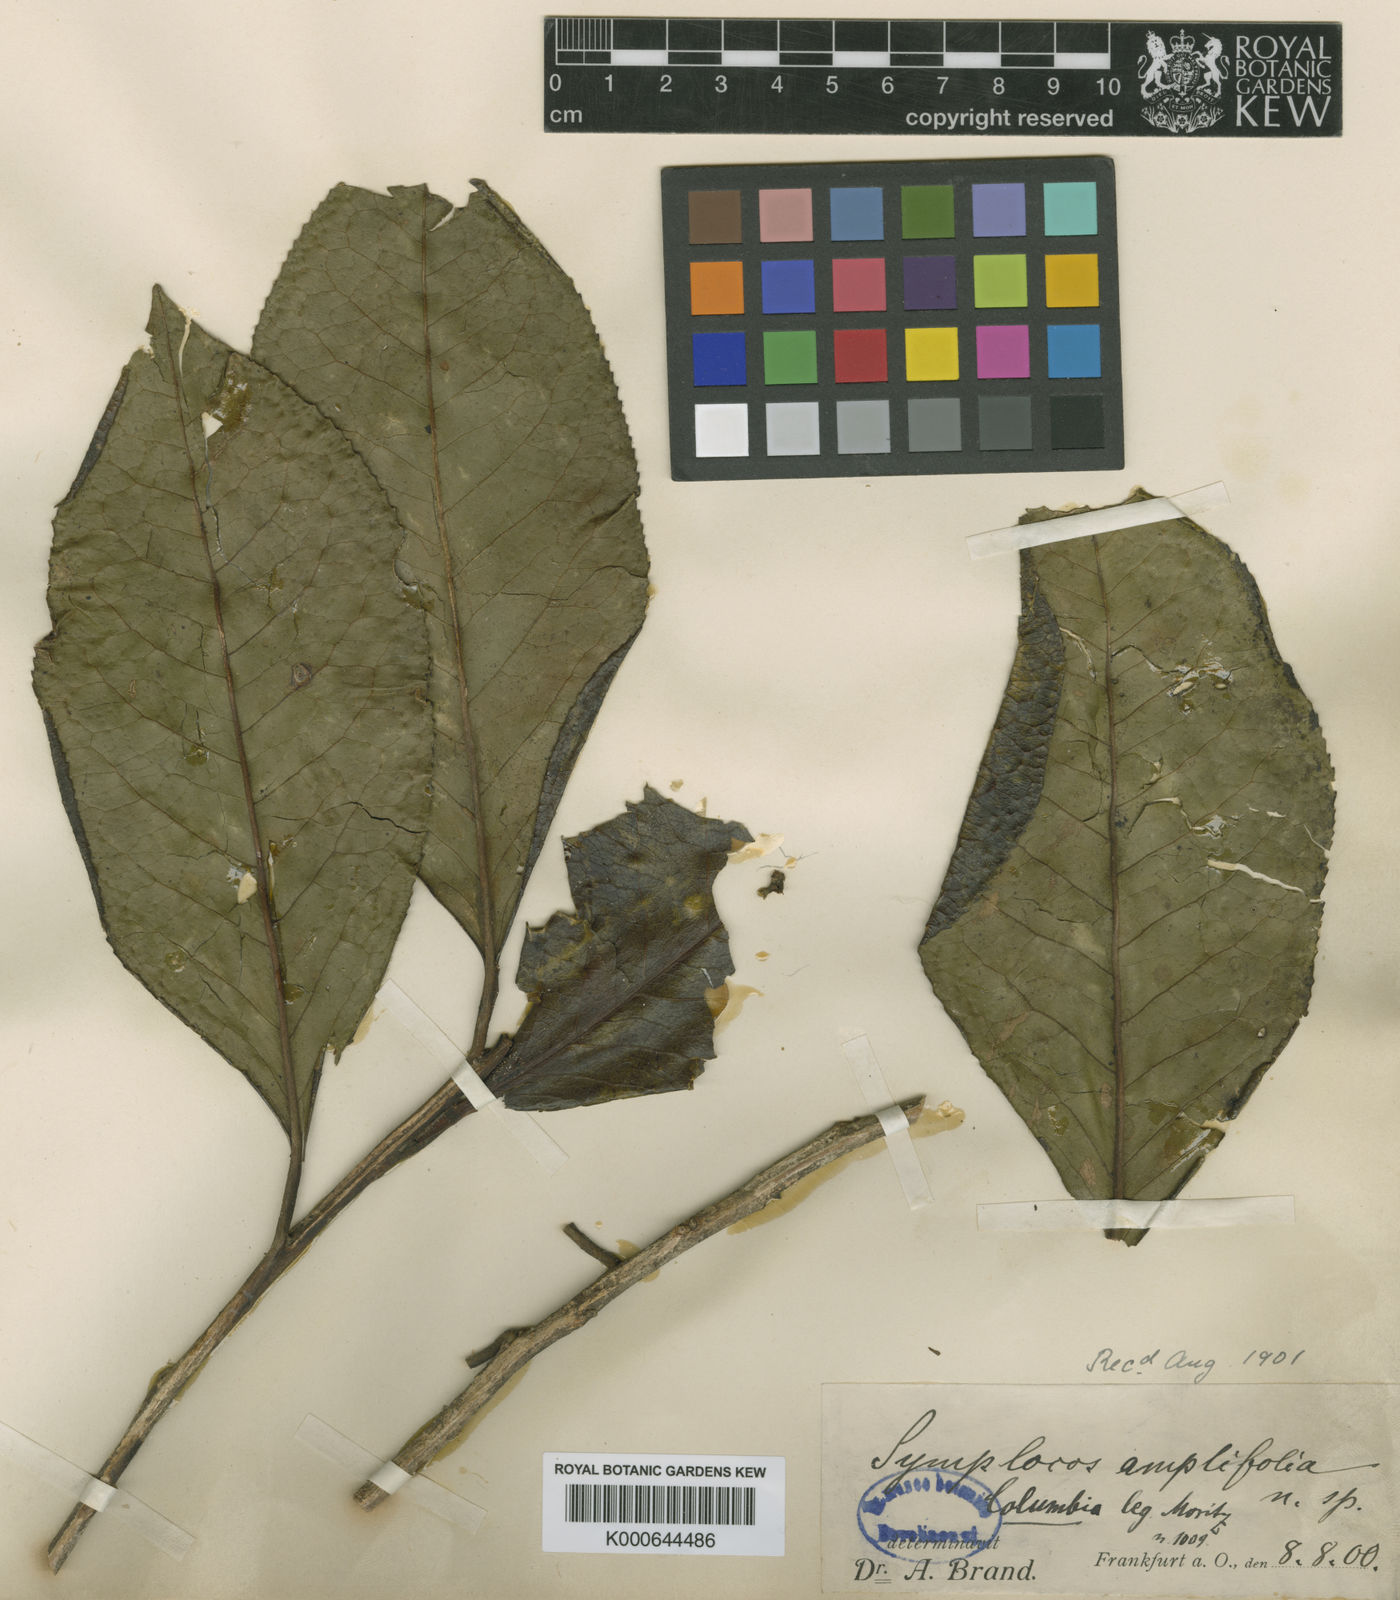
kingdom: Plantae
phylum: Tracheophyta
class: Magnoliopsida
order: Ericales
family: Symplocaceae
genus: Symplocos
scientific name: Symplocos amplifolia
